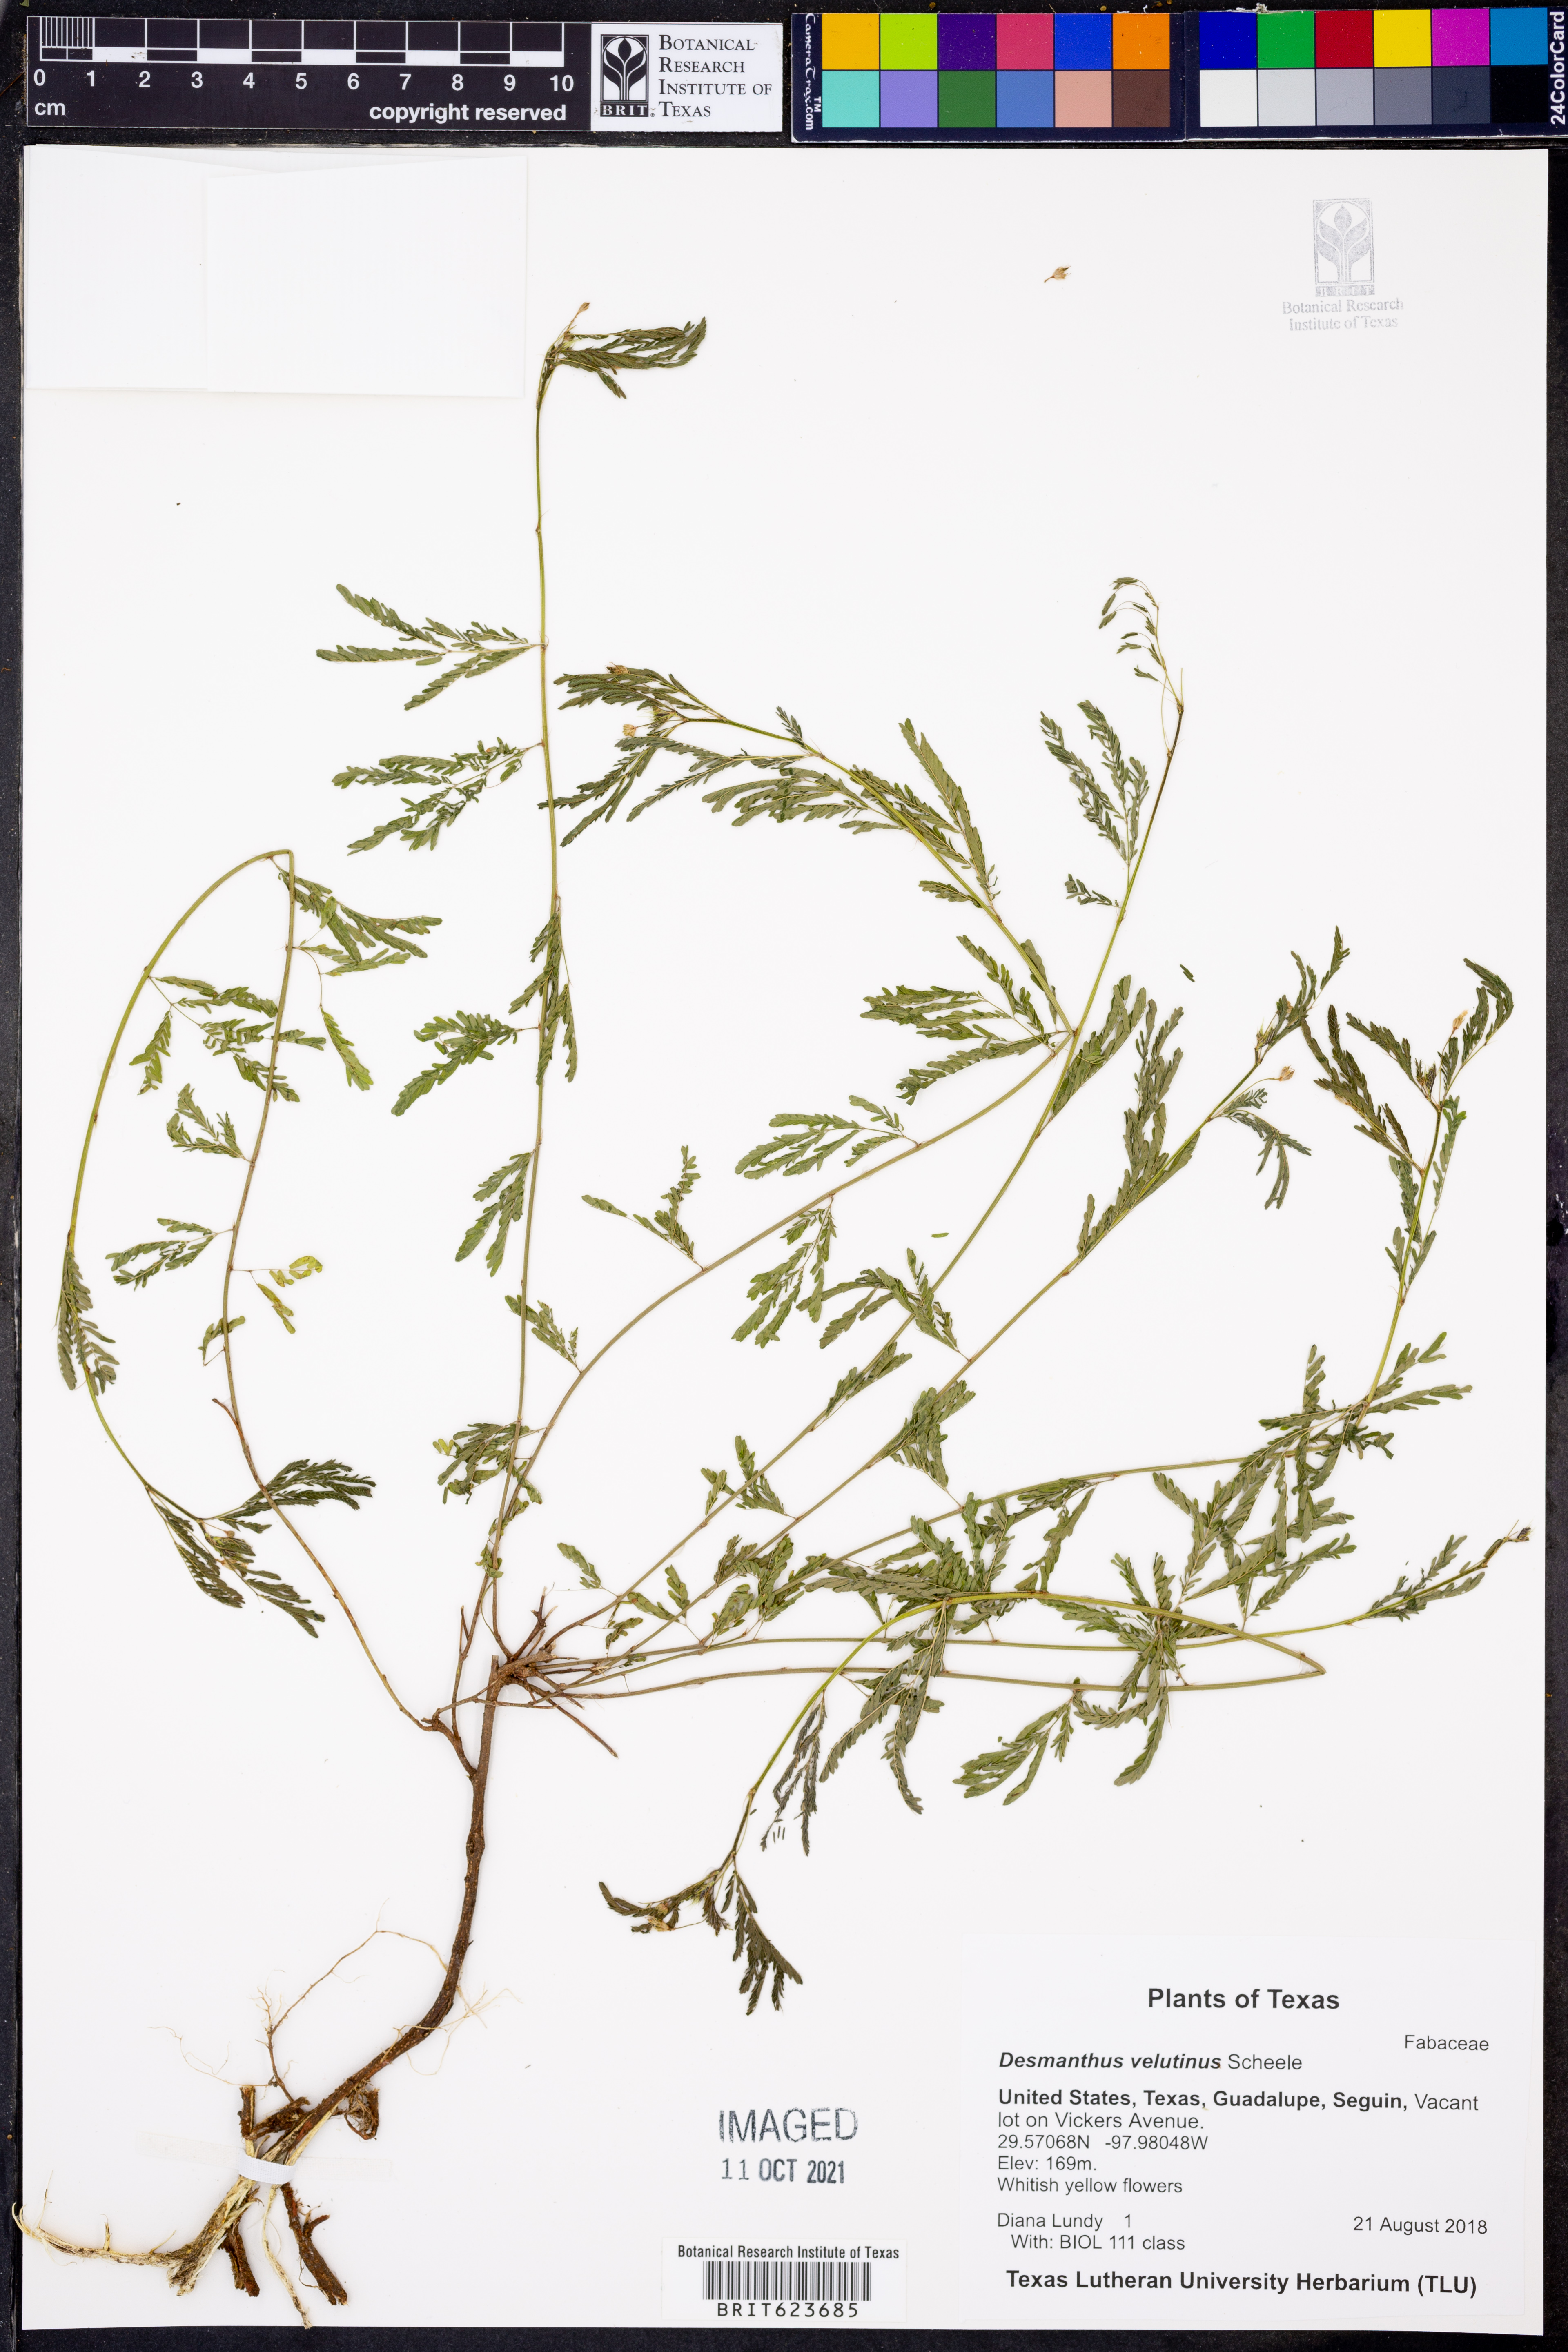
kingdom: Plantae
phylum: Tracheophyta
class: Magnoliopsida
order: Fabales
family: Fabaceae
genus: Desmanthus
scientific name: Desmanthus velutinus
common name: Velvet bundle-flower
